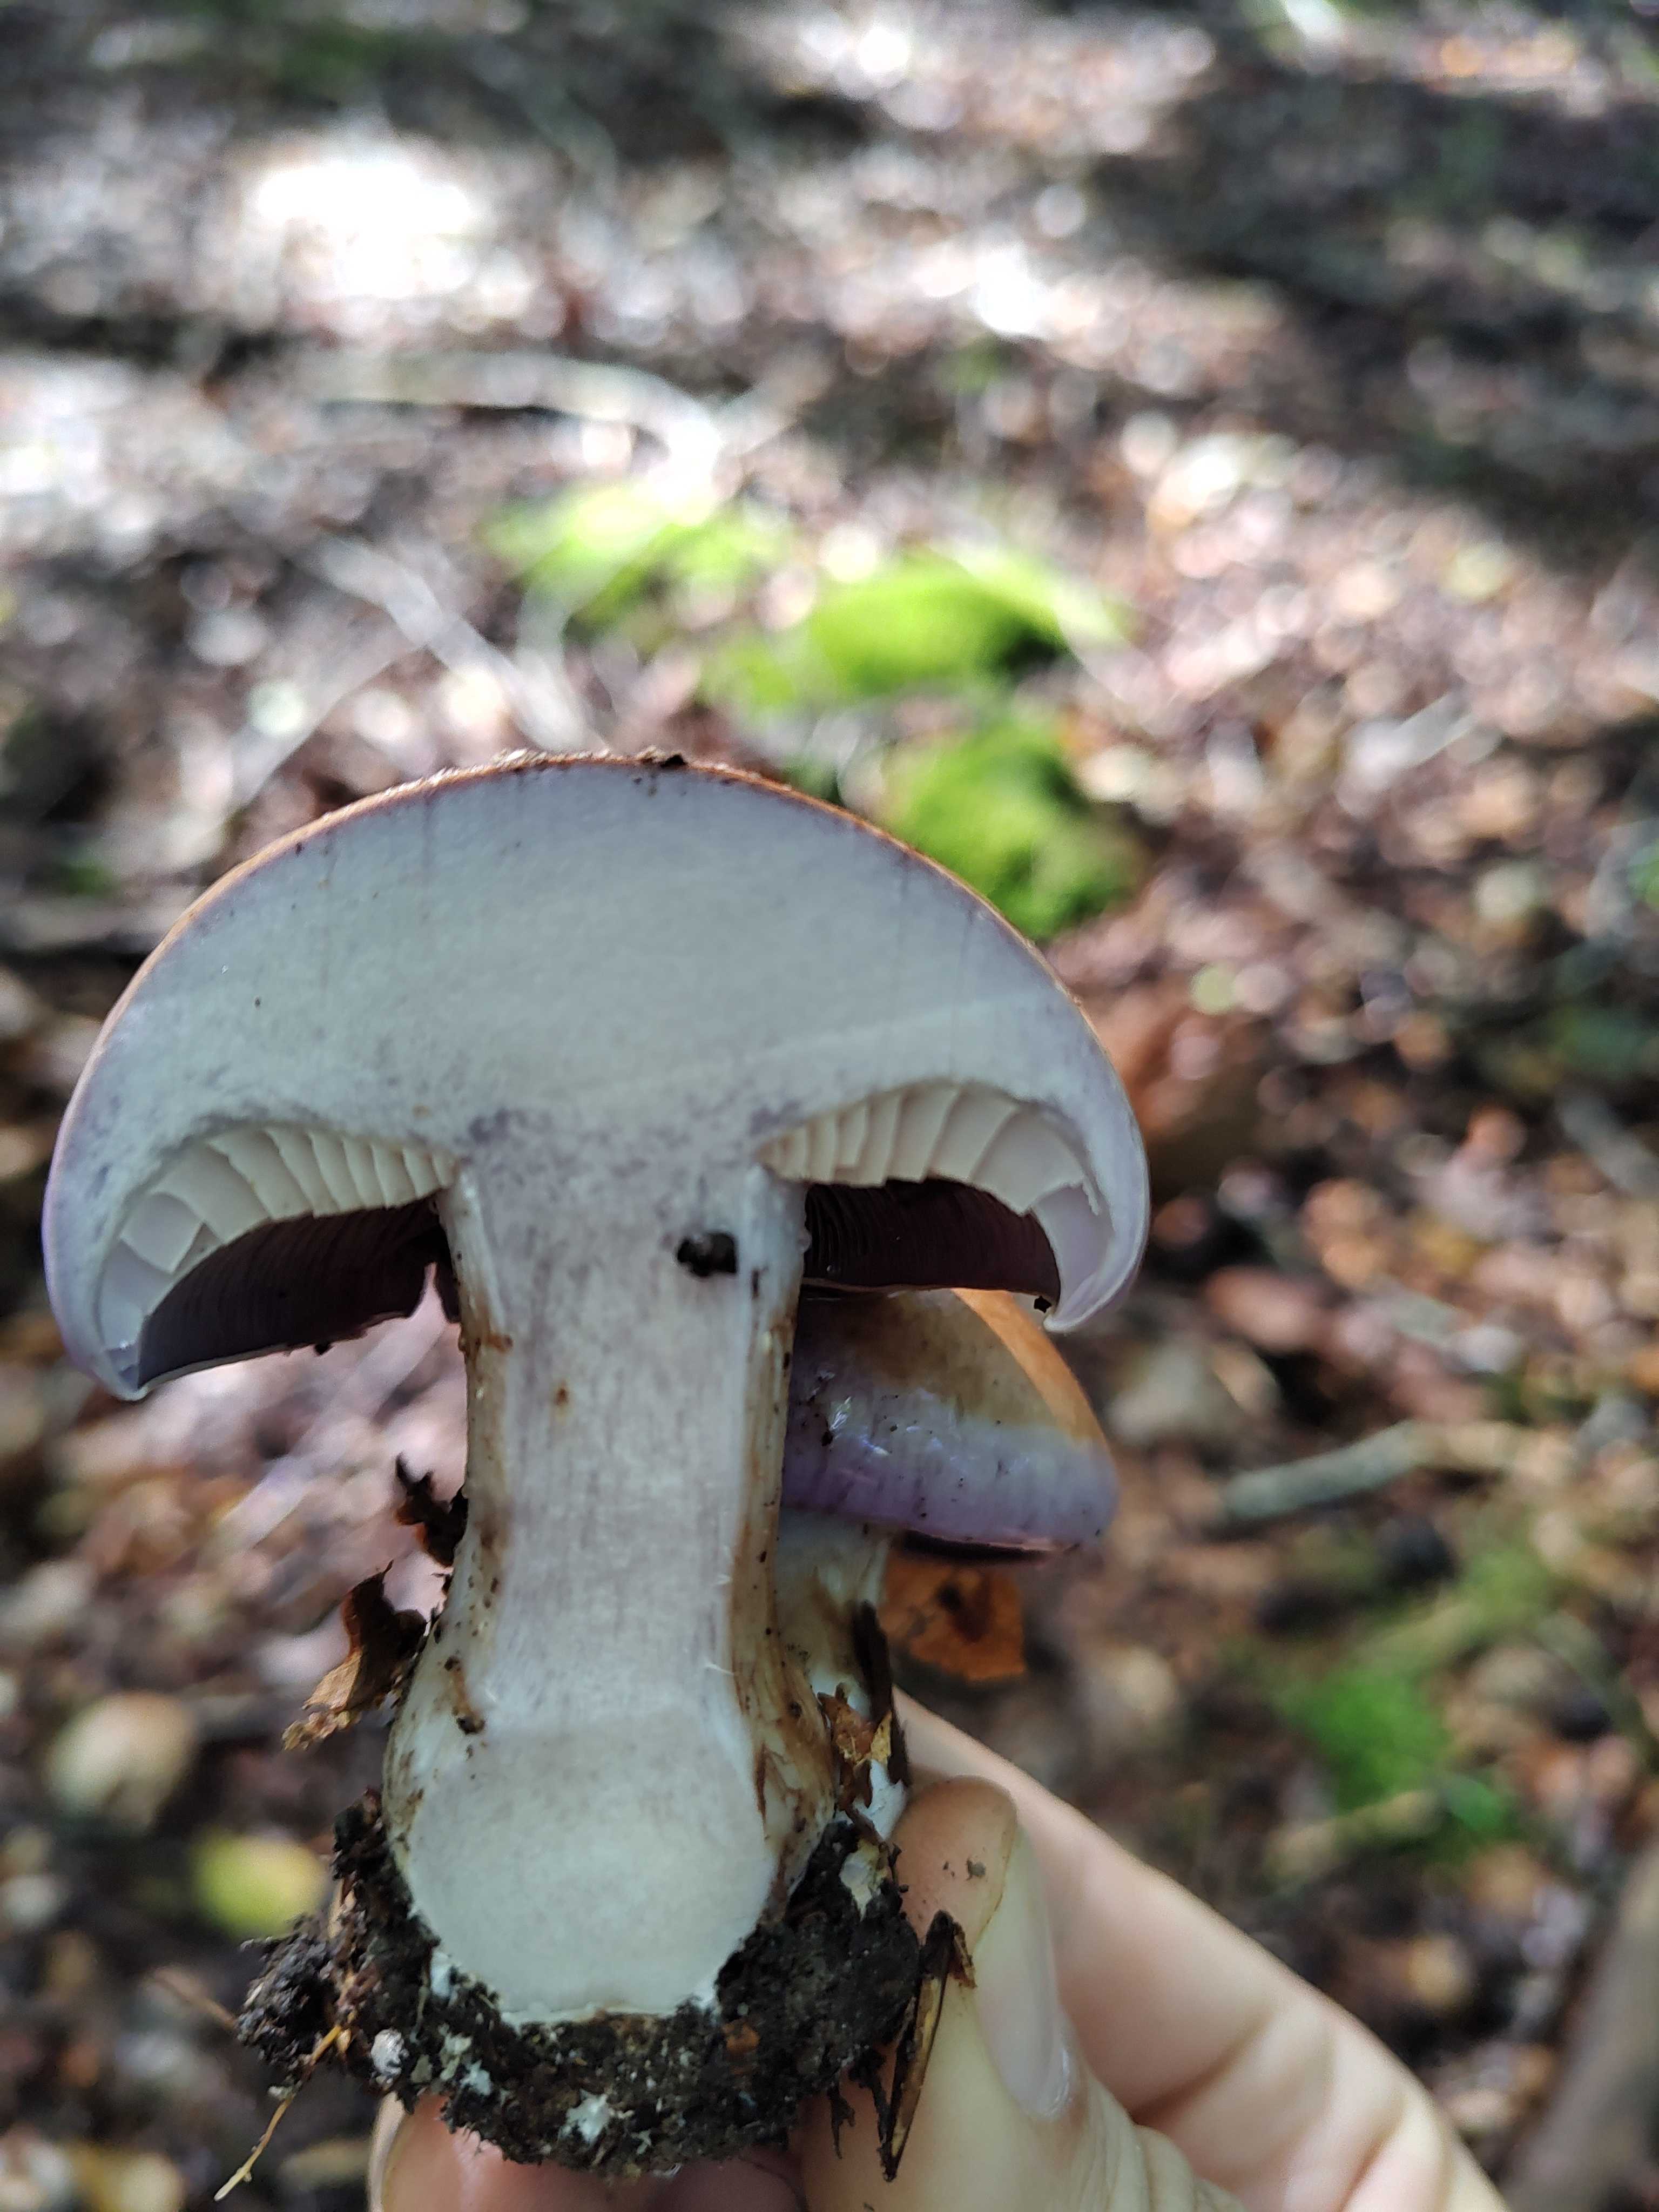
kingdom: Fungi
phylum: Basidiomycota
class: Agaricomycetes
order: Agaricales
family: Cortinariaceae
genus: Cortinarius
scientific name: Cortinarius largus
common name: violetrandet slørhat
